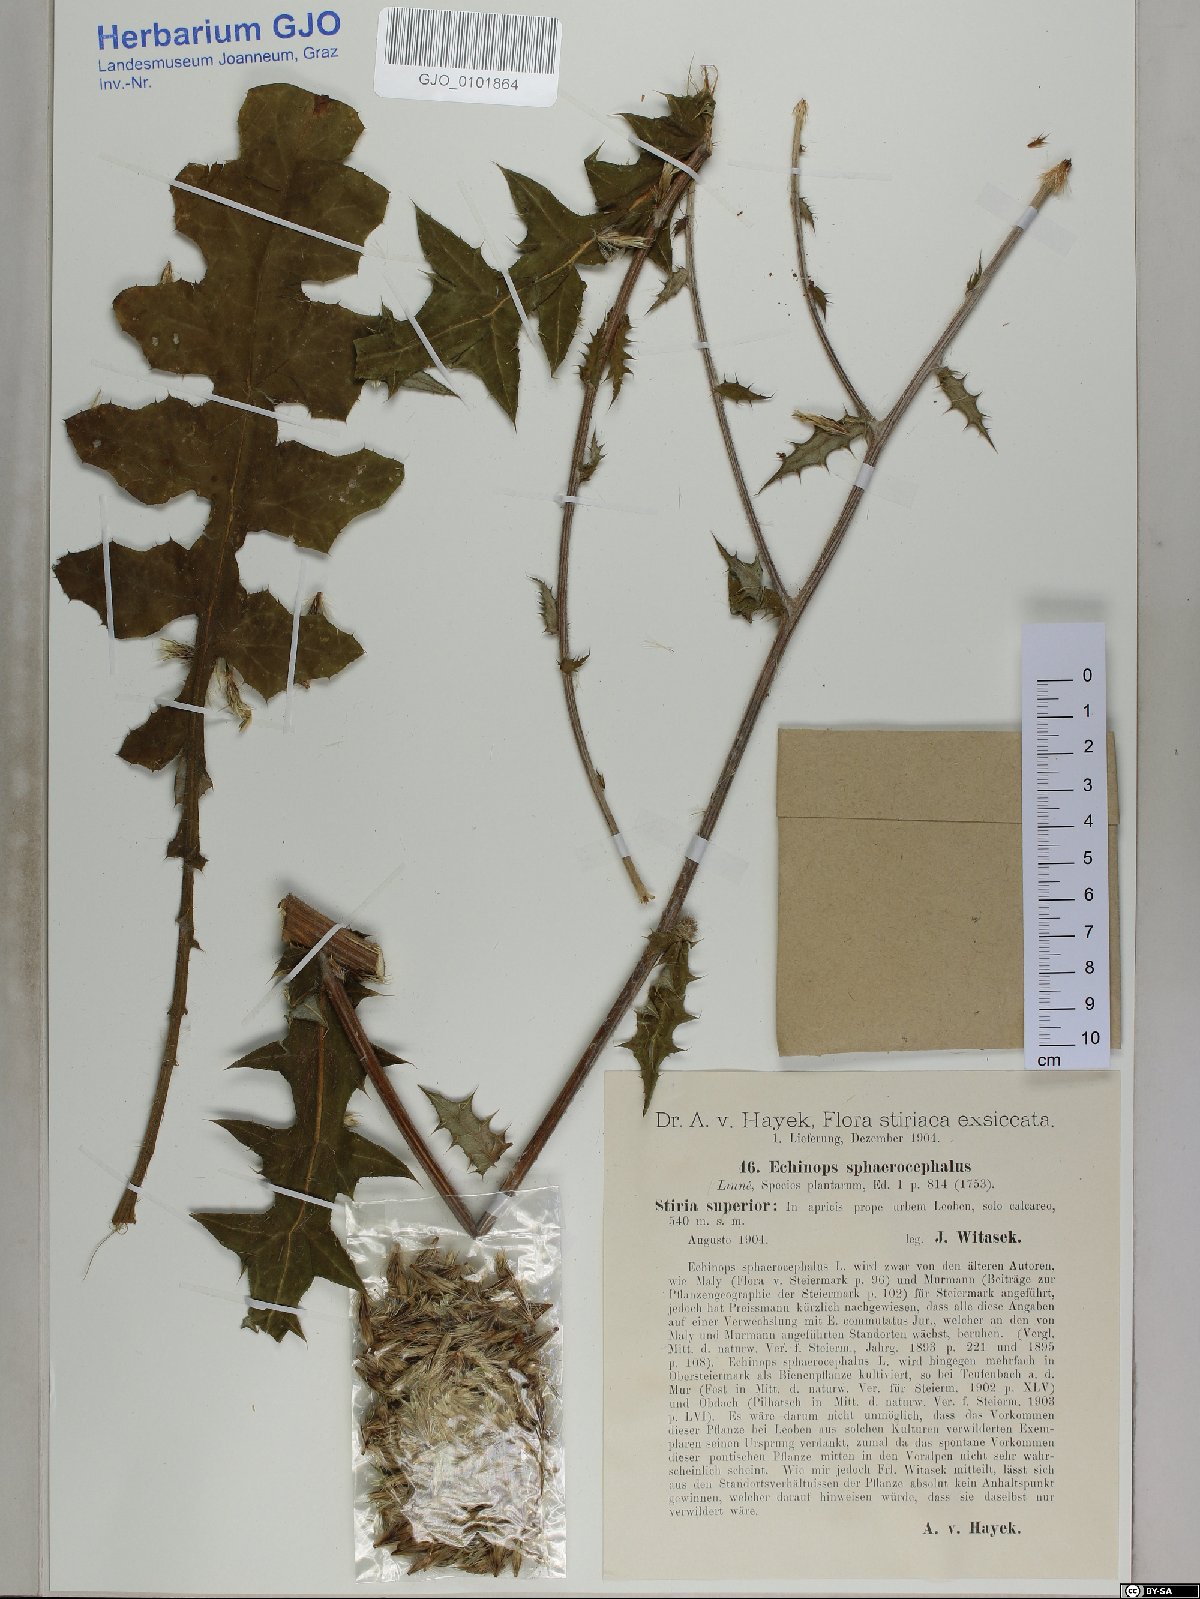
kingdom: Plantae
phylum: Tracheophyta
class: Magnoliopsida
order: Asterales
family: Asteraceae
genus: Echinops
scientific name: Echinops sphaerocephalus
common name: Glandular globe-thistle
